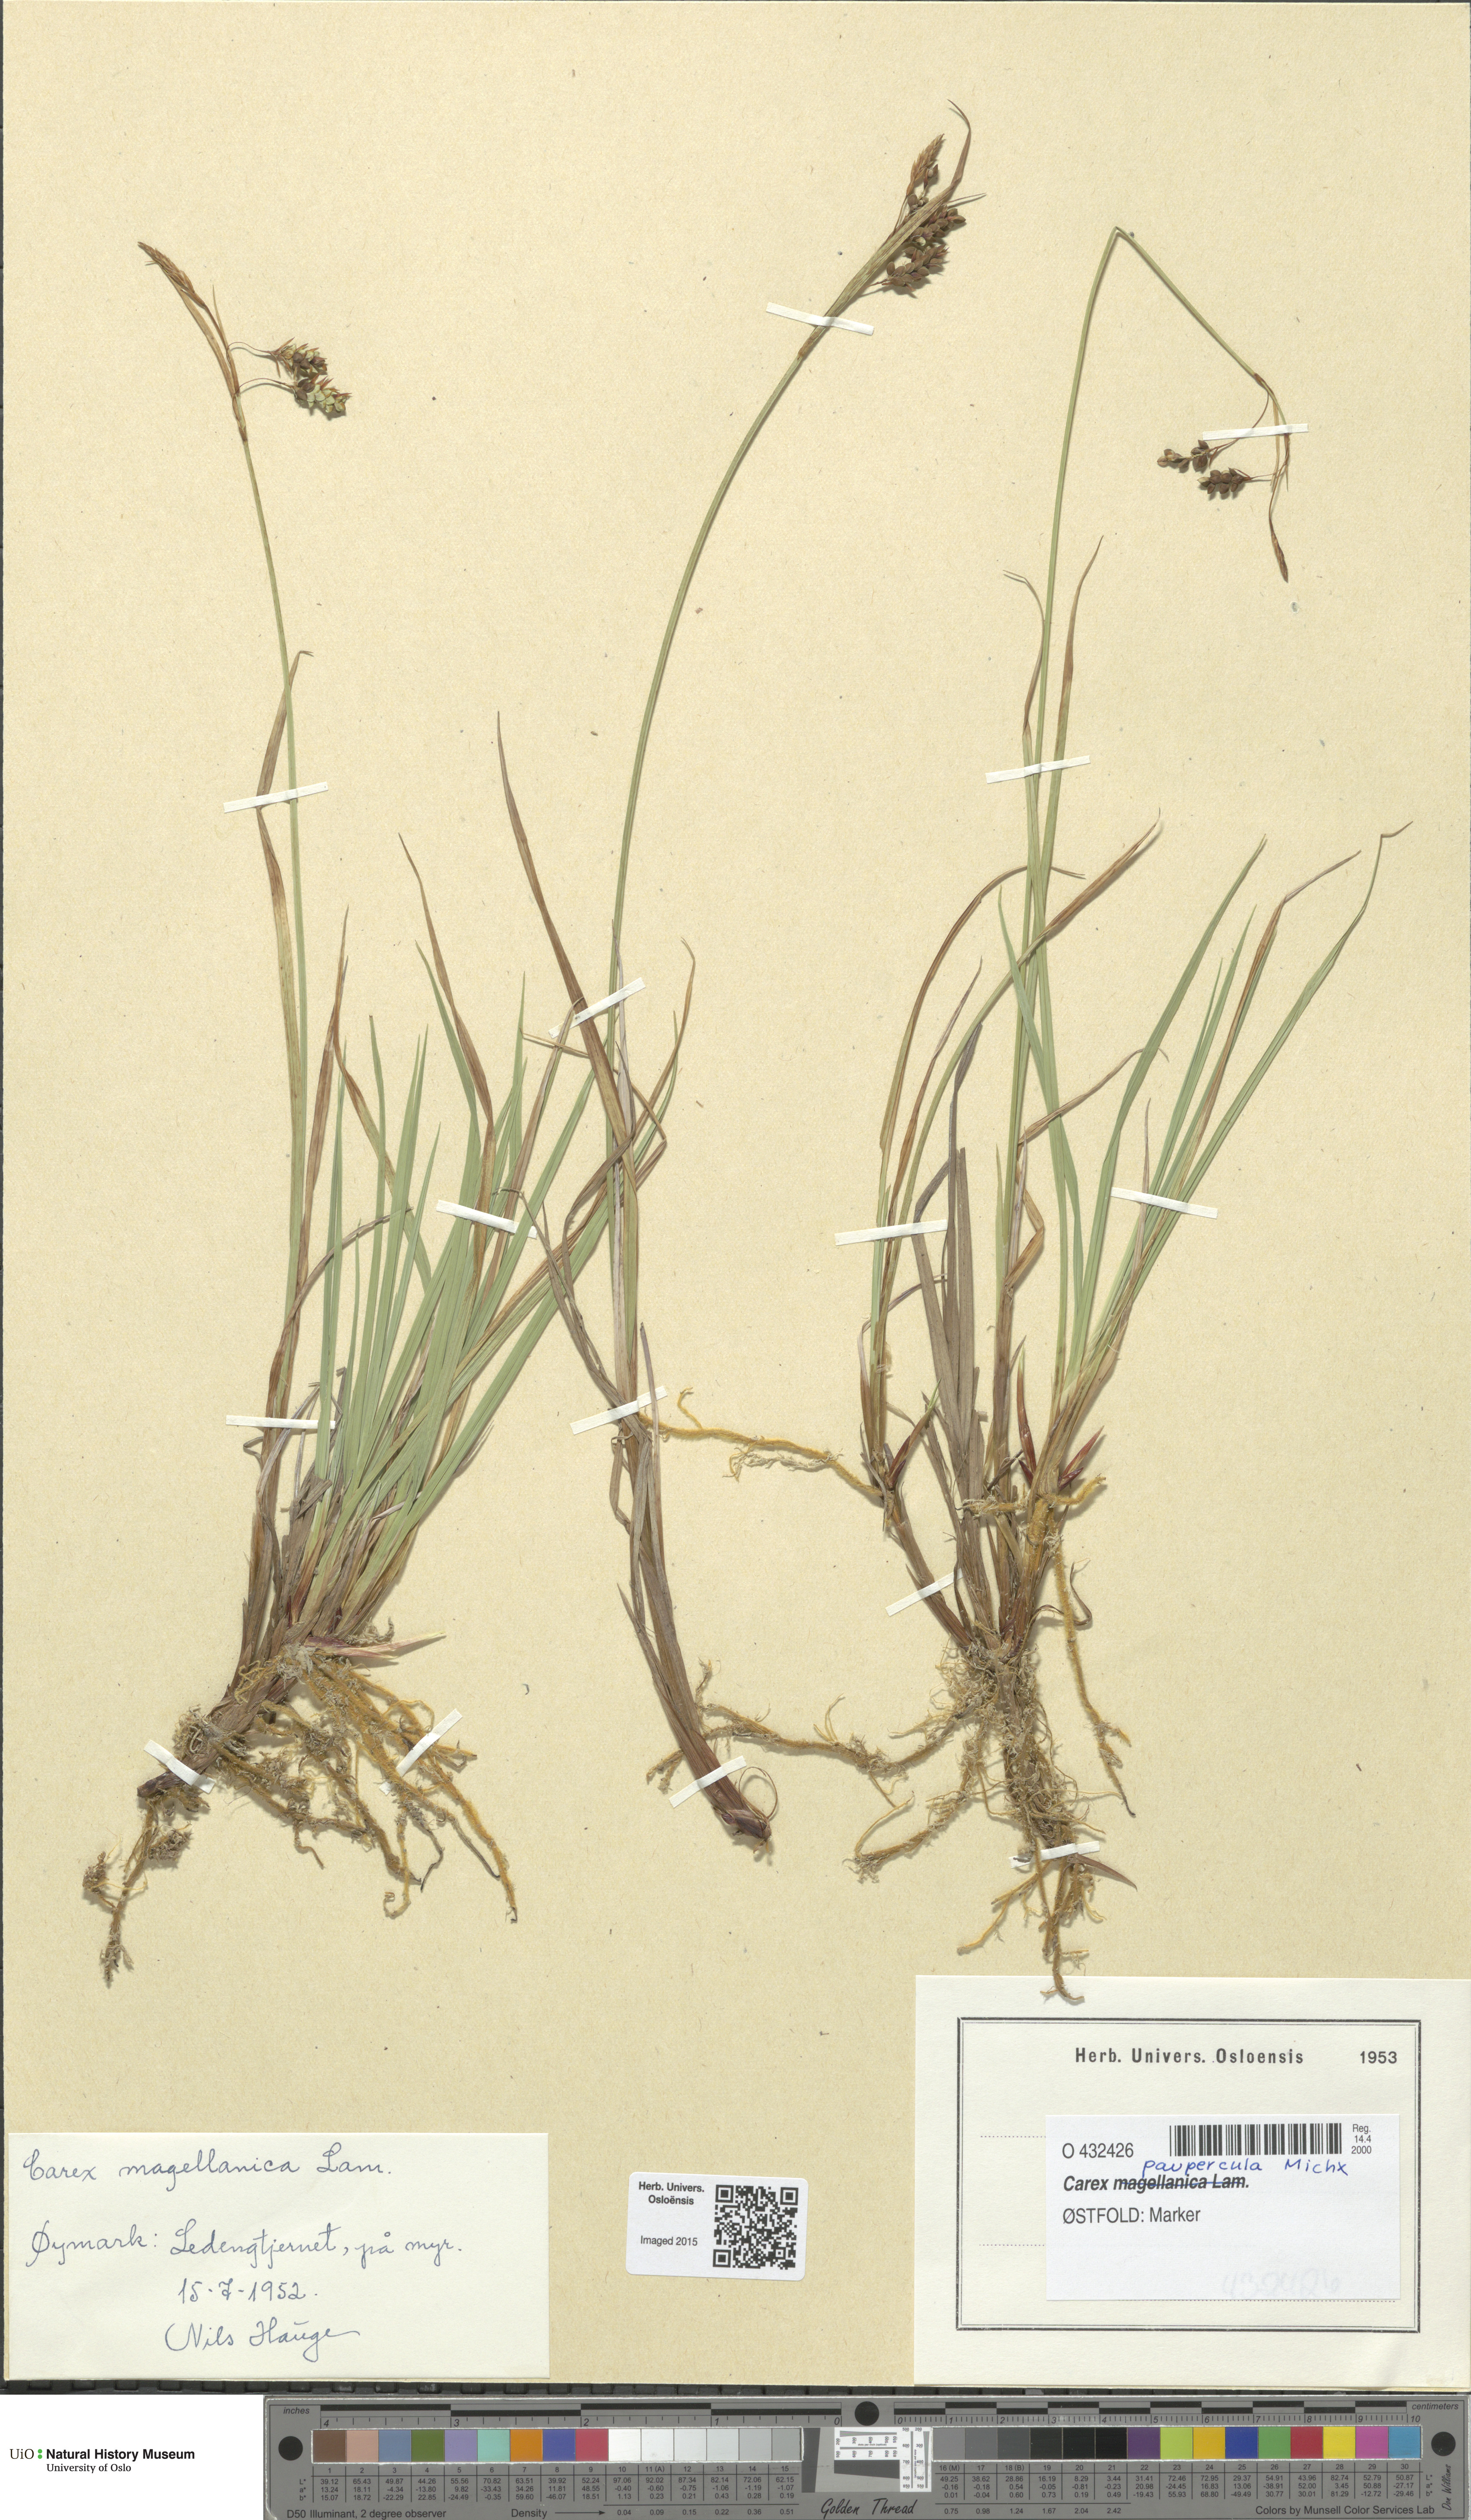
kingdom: Plantae
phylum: Tracheophyta
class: Liliopsida
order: Poales
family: Cyperaceae
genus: Carex
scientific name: Carex magellanica
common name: Bog sedge
